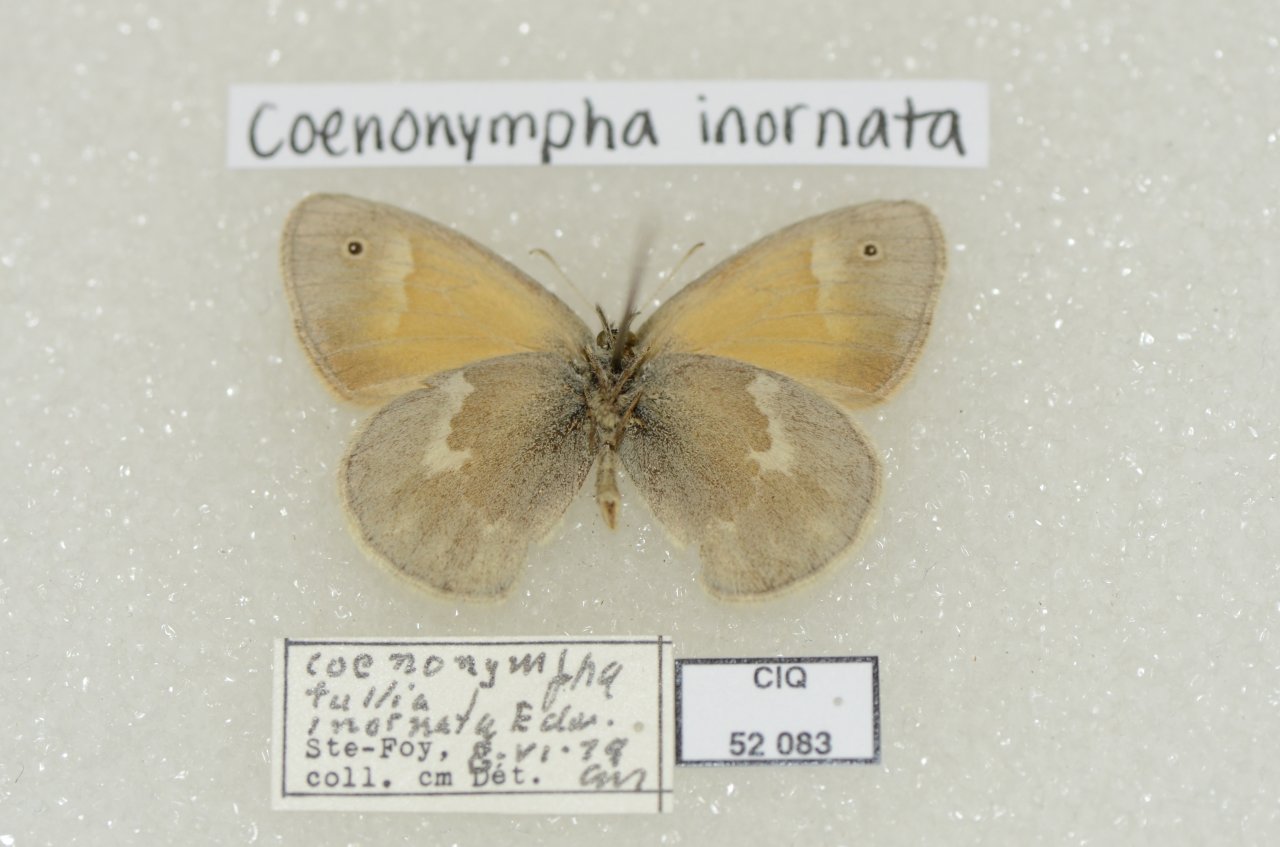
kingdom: Animalia
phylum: Arthropoda
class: Insecta
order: Lepidoptera
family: Nymphalidae
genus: Coenonympha
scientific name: Coenonympha tullia
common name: Large Heath
